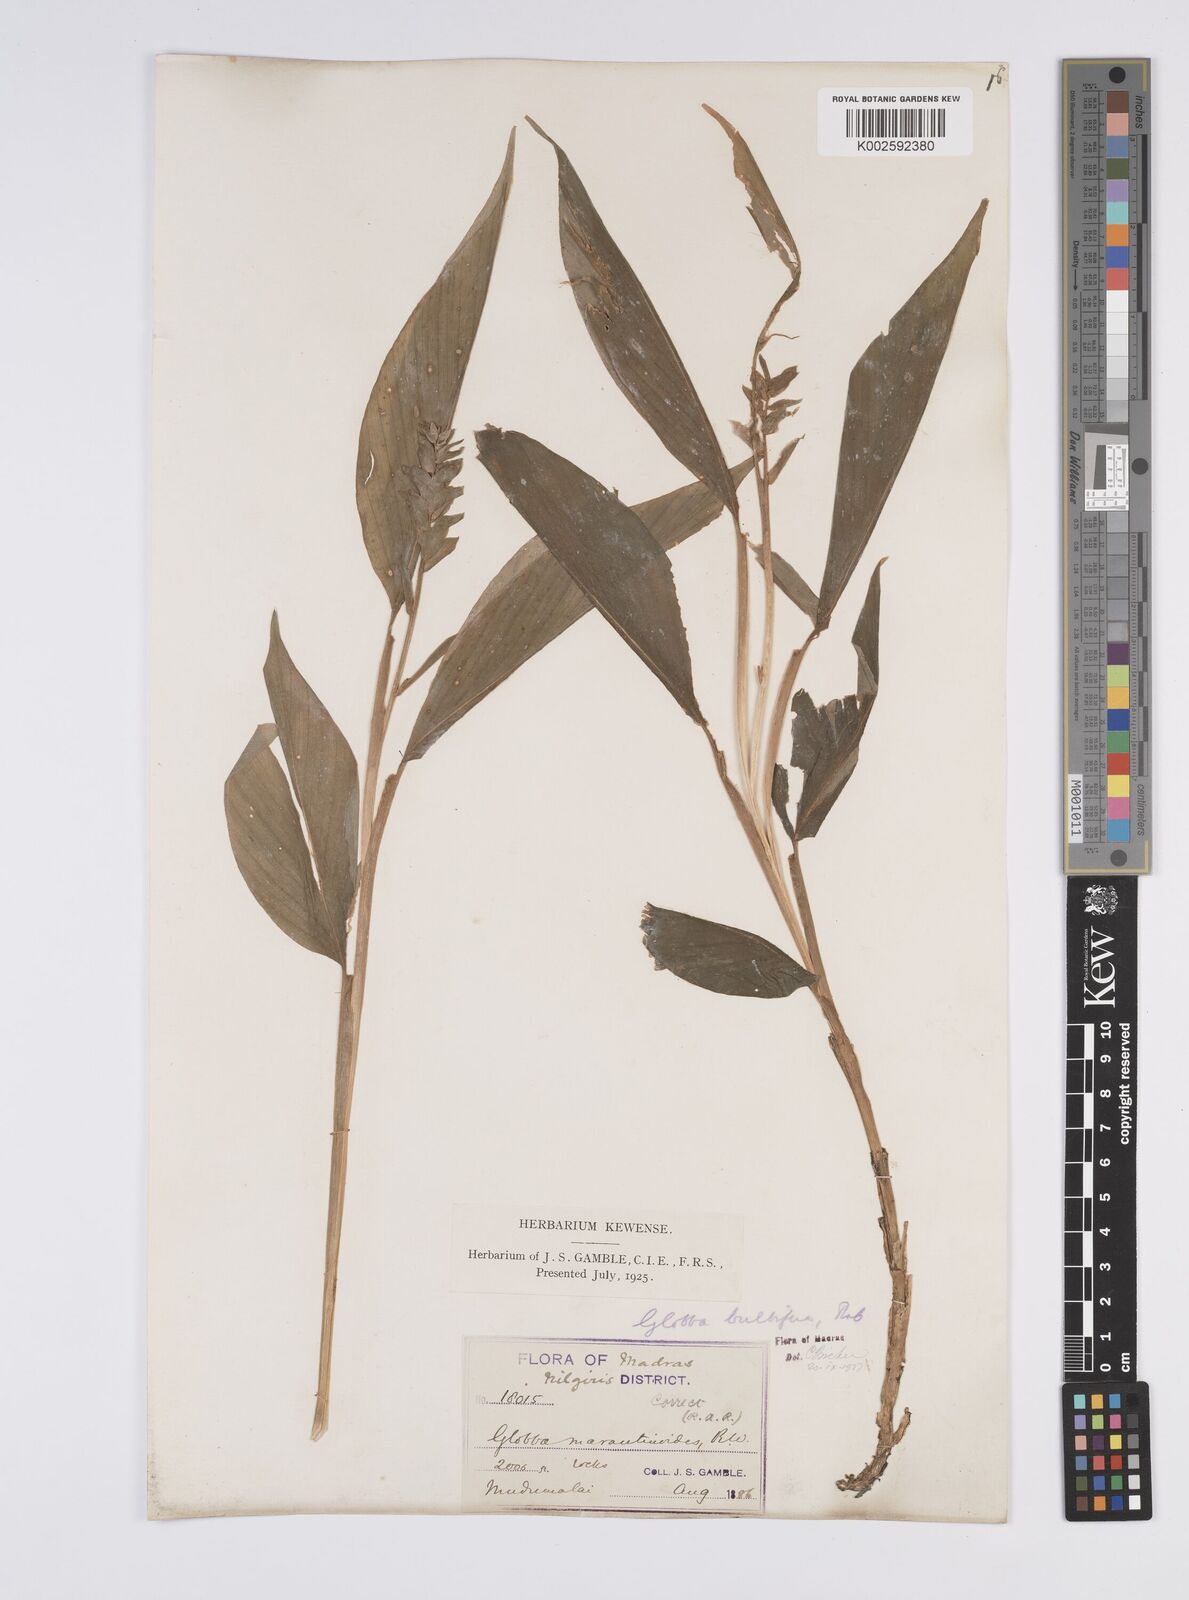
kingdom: Plantae
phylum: Tracheophyta
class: Liliopsida
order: Zingiberales
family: Zingiberaceae
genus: Globba
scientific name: Globba marantina
